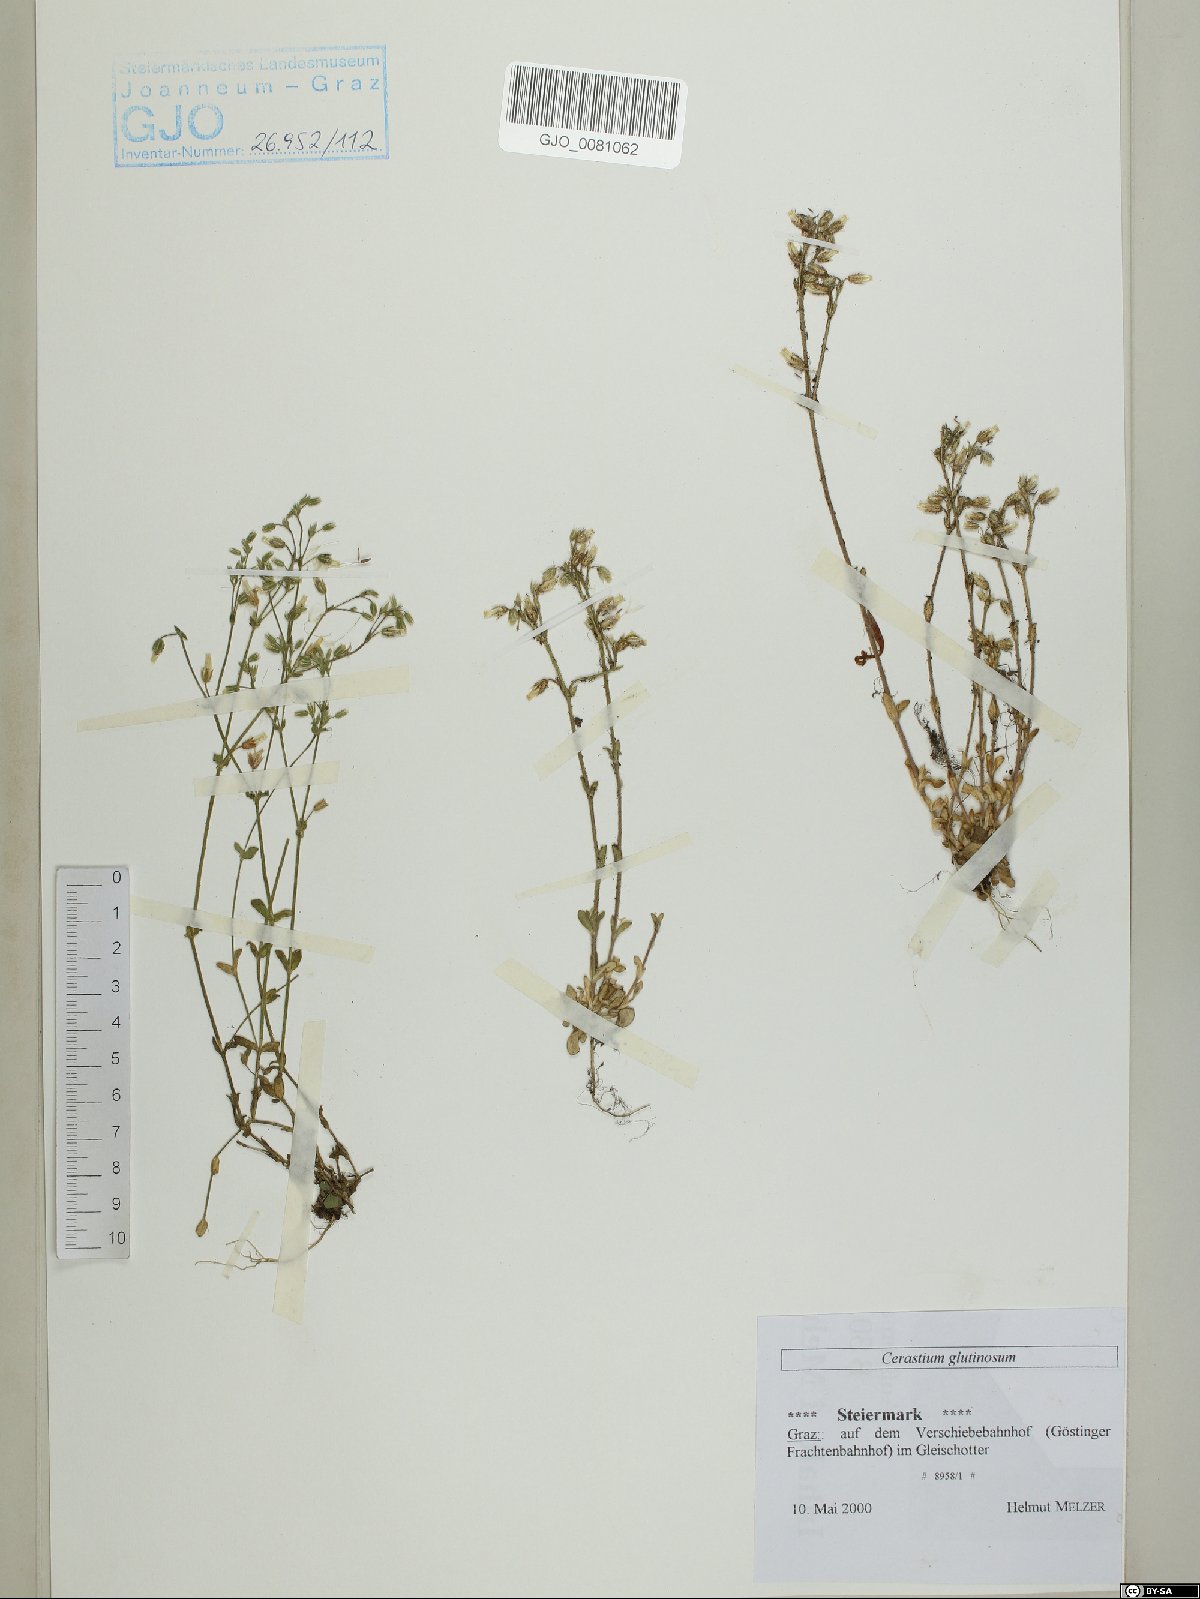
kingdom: Plantae
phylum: Tracheophyta
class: Magnoliopsida
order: Caryophyllales
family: Caryophyllaceae
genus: Cerastium
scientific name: Cerastium glutinosum
